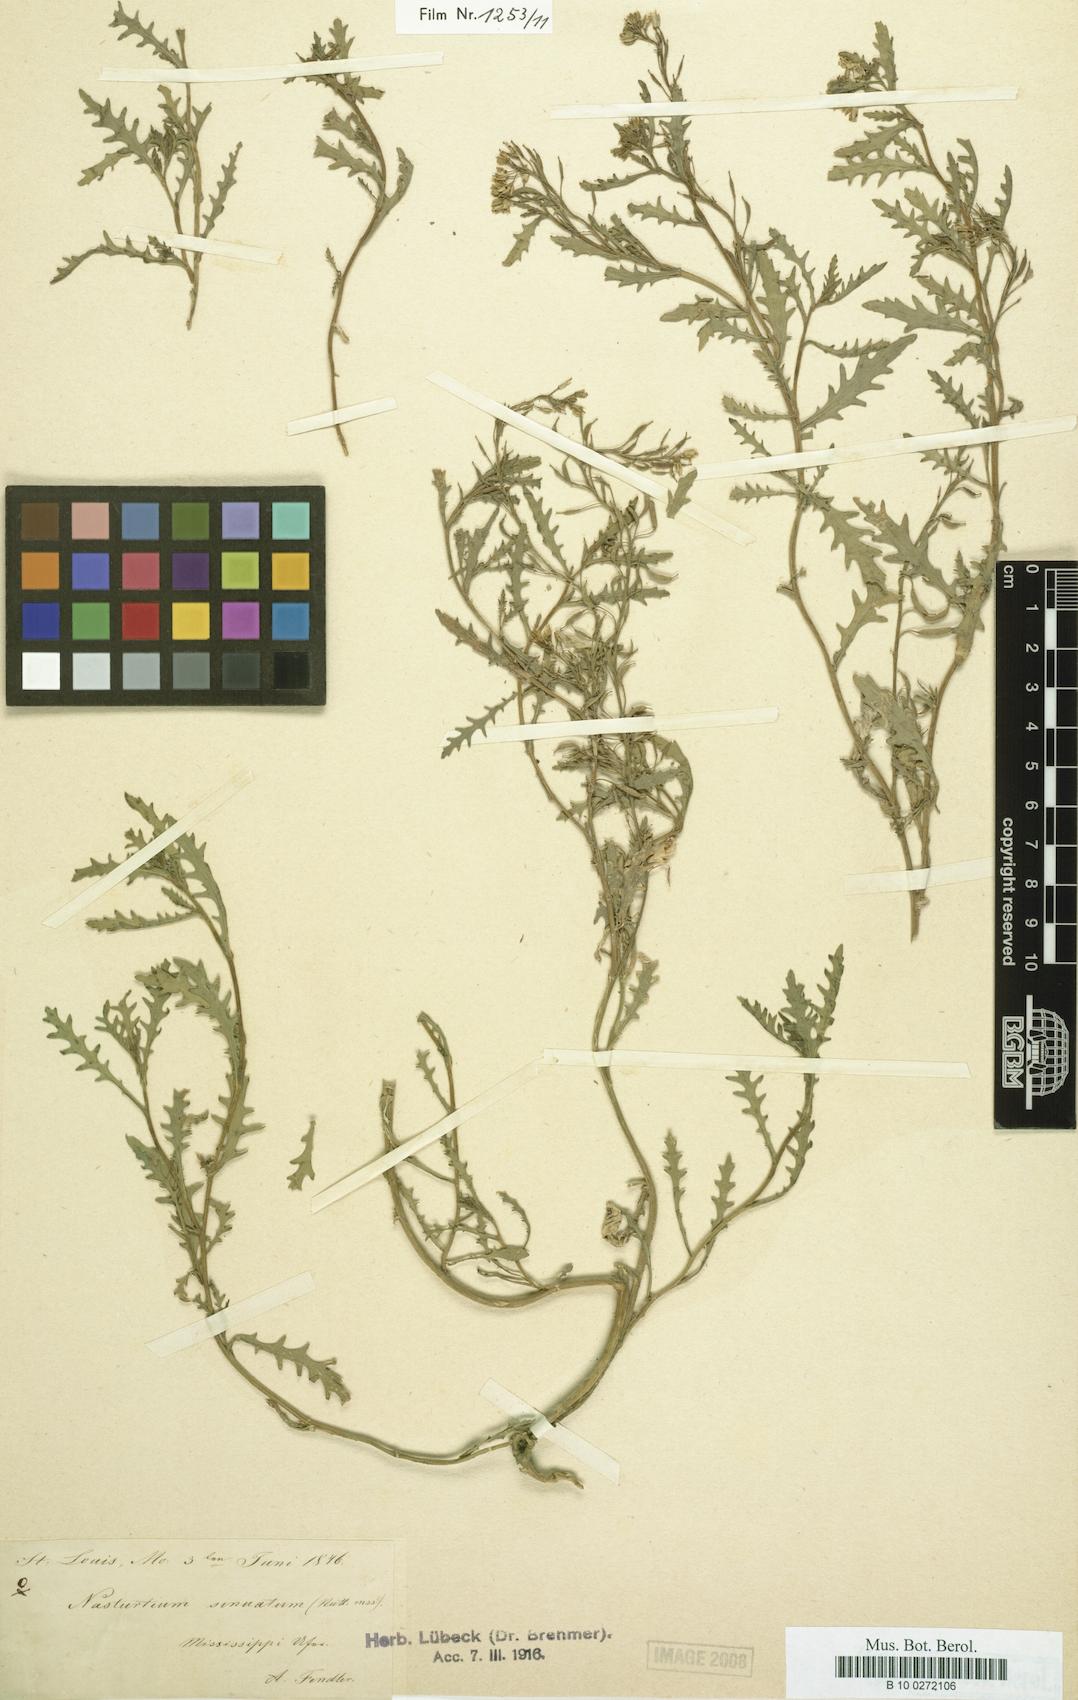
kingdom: Plantae
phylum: Tracheophyta
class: Magnoliopsida
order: Brassicales
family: Brassicaceae
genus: Rorippa
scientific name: Rorippa sinuata
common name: Spread yellow cress
